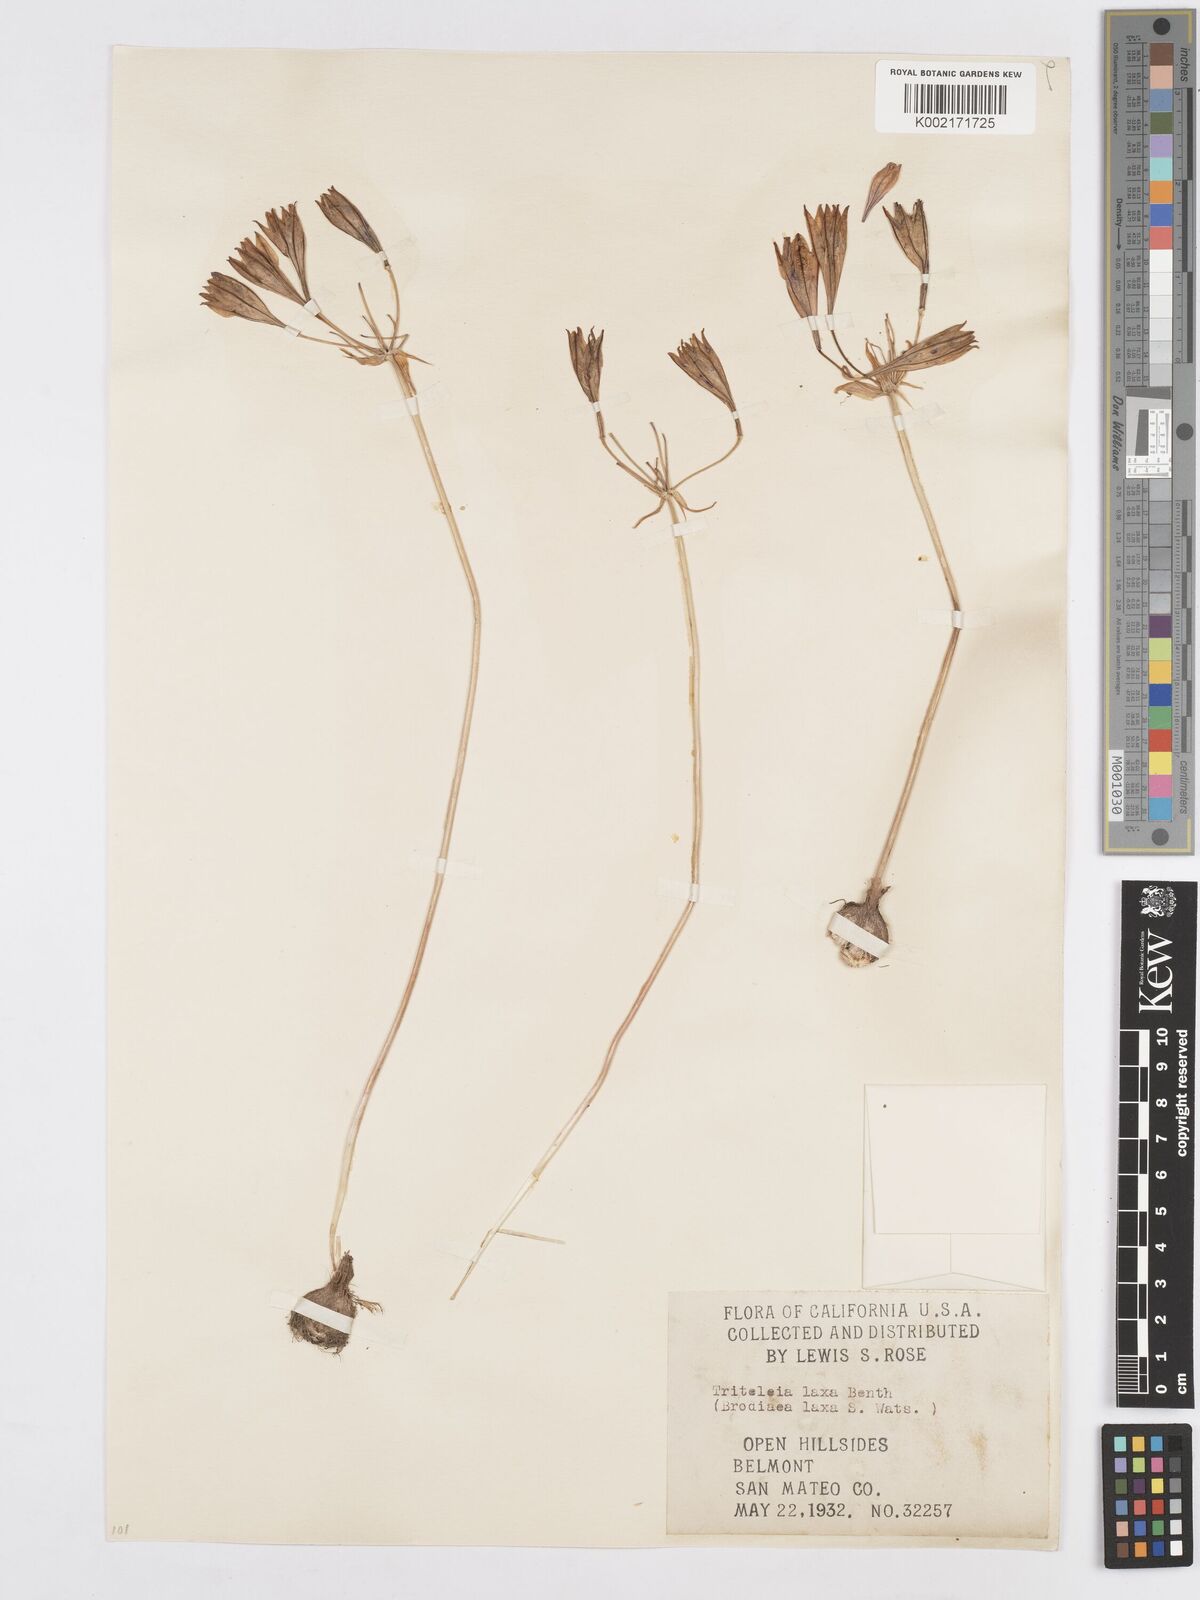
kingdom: Plantae
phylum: Tracheophyta
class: Liliopsida
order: Asparagales
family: Asparagaceae
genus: Triteleia
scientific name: Triteleia laxa
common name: Triplet-lily
